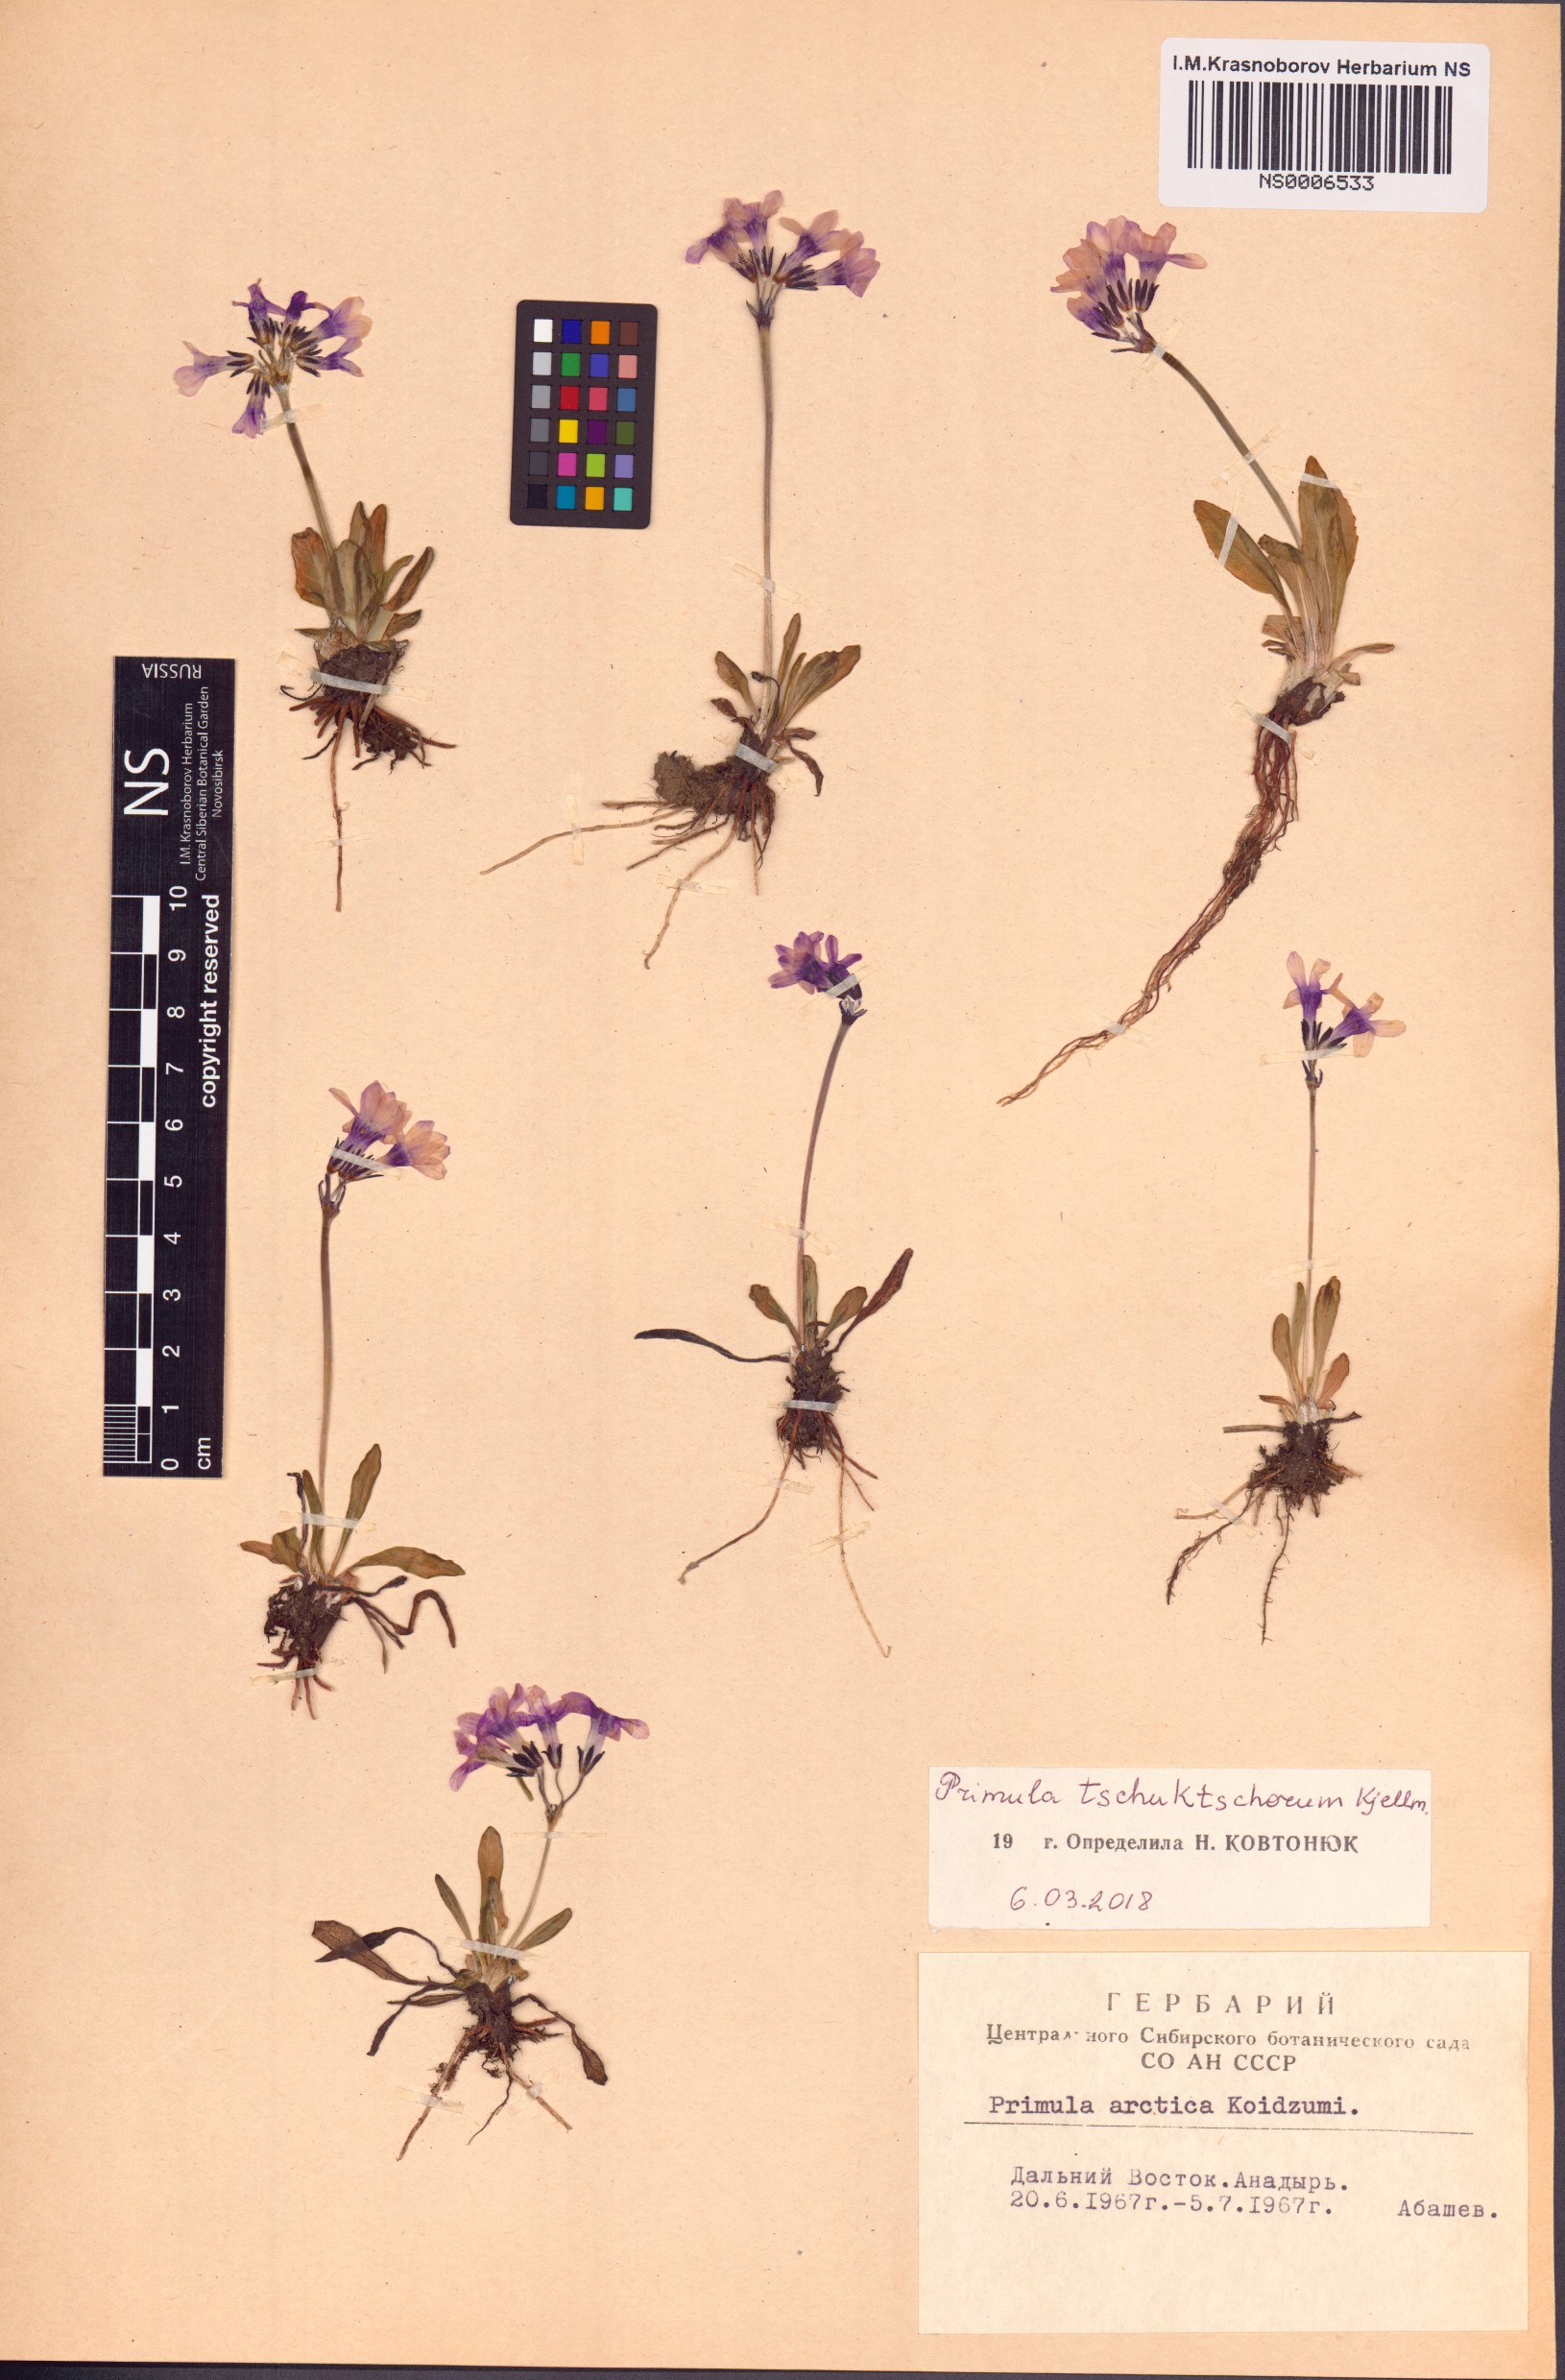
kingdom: Plantae
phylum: Tracheophyta
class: Magnoliopsida
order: Ericales
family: Primulaceae
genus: Primula
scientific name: Primula tschuktschorum
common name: Chukchi primrose
